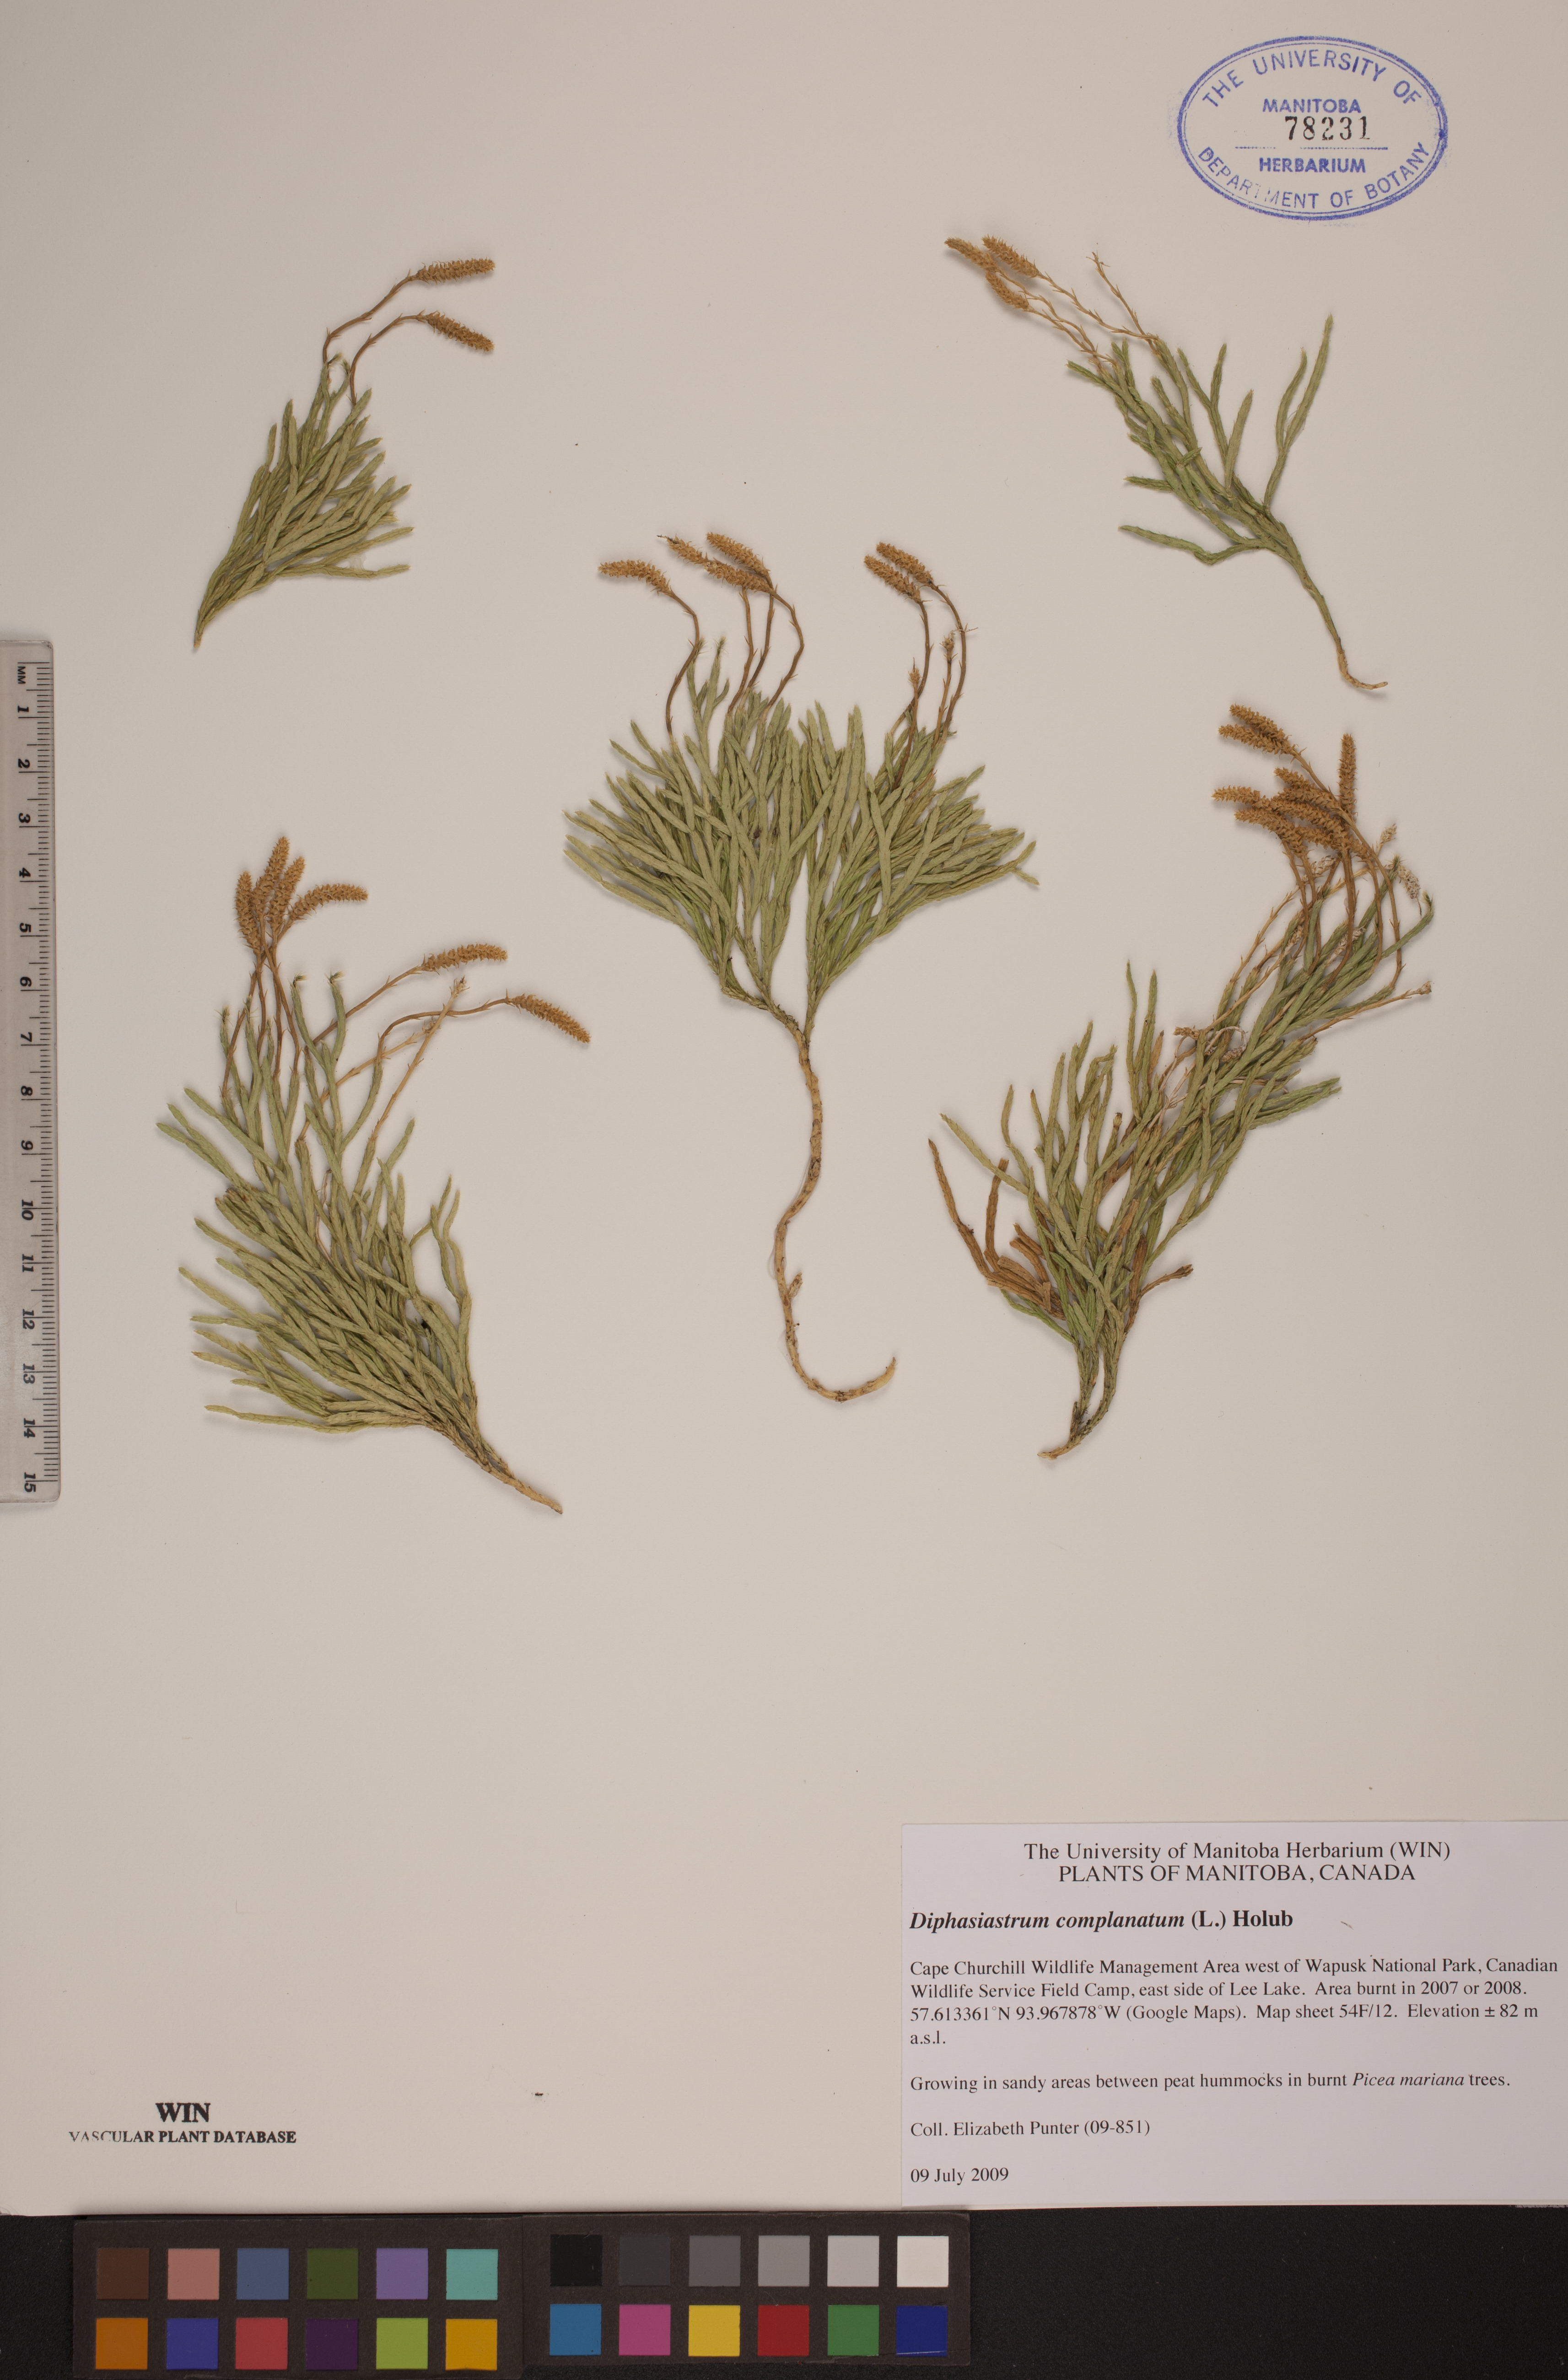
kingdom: Plantae
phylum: Tracheophyta
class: Lycopodiopsida
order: Lycopodiales
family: Lycopodiaceae
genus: Diphasiastrum
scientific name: Diphasiastrum complanatum
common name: Northern running-pine
